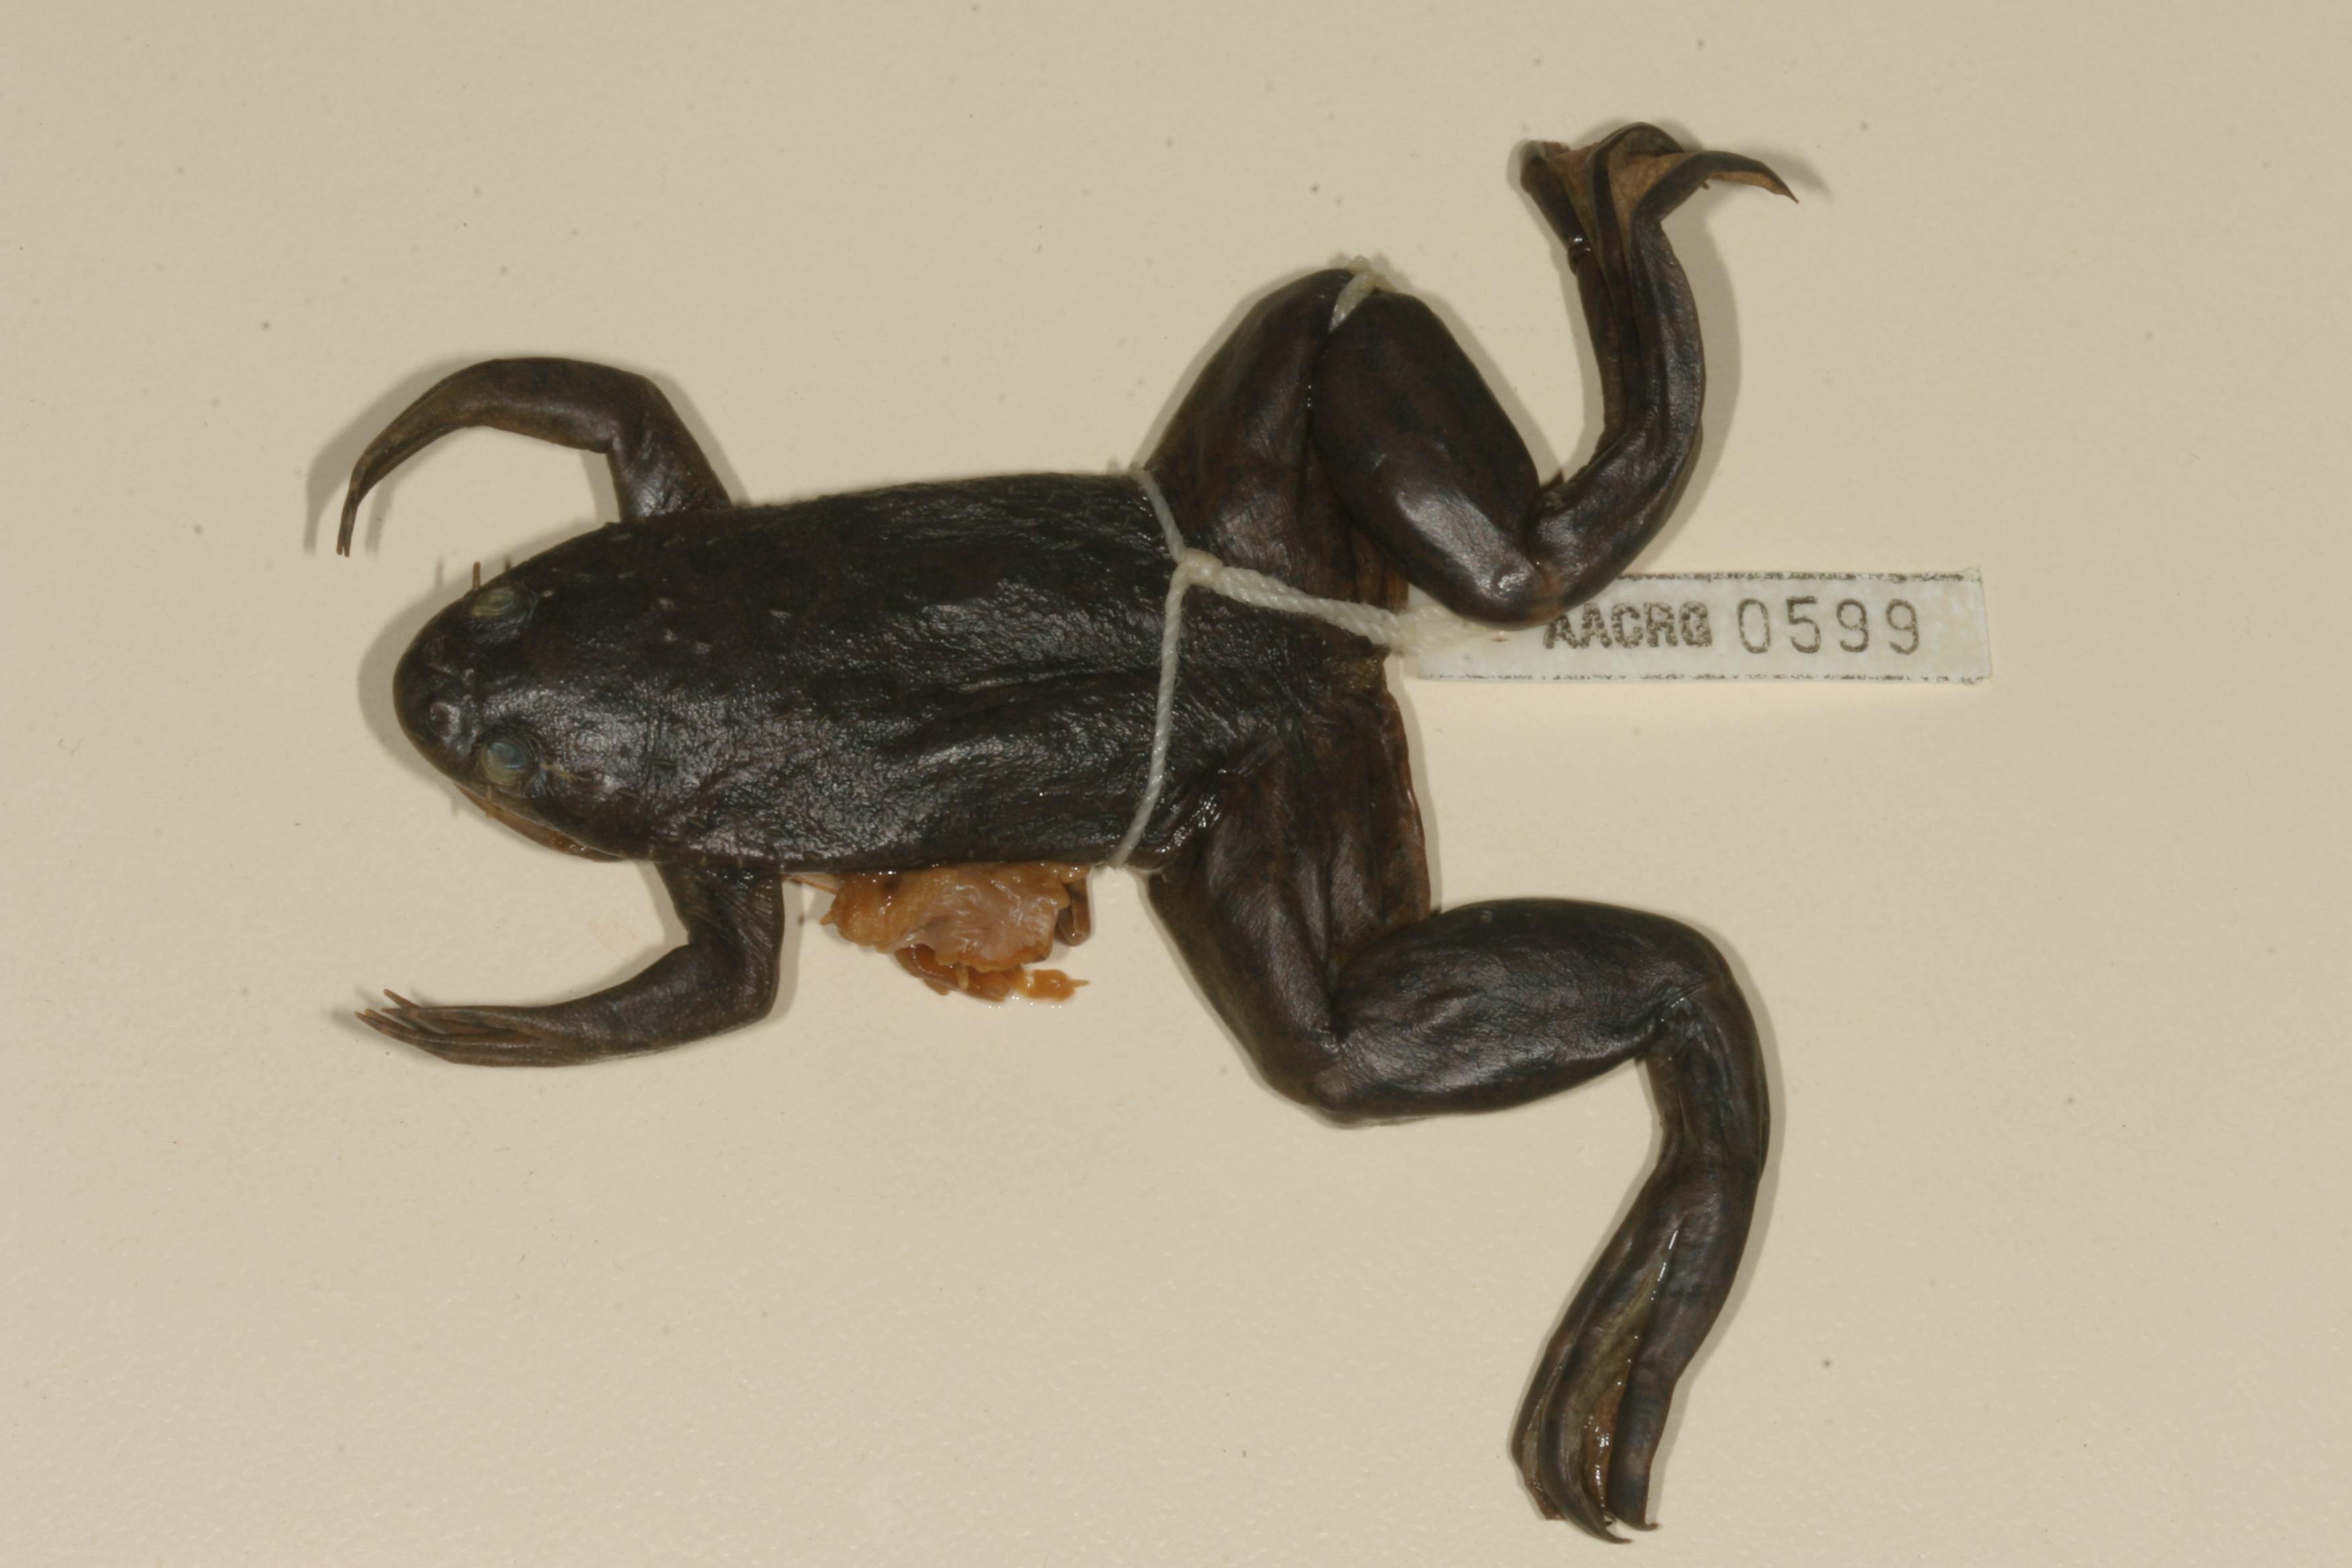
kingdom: Animalia
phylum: Chordata
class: Amphibia
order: Anura
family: Pipidae
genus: Xenopus
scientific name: Xenopus muelleri
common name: Muller's clawed frog
